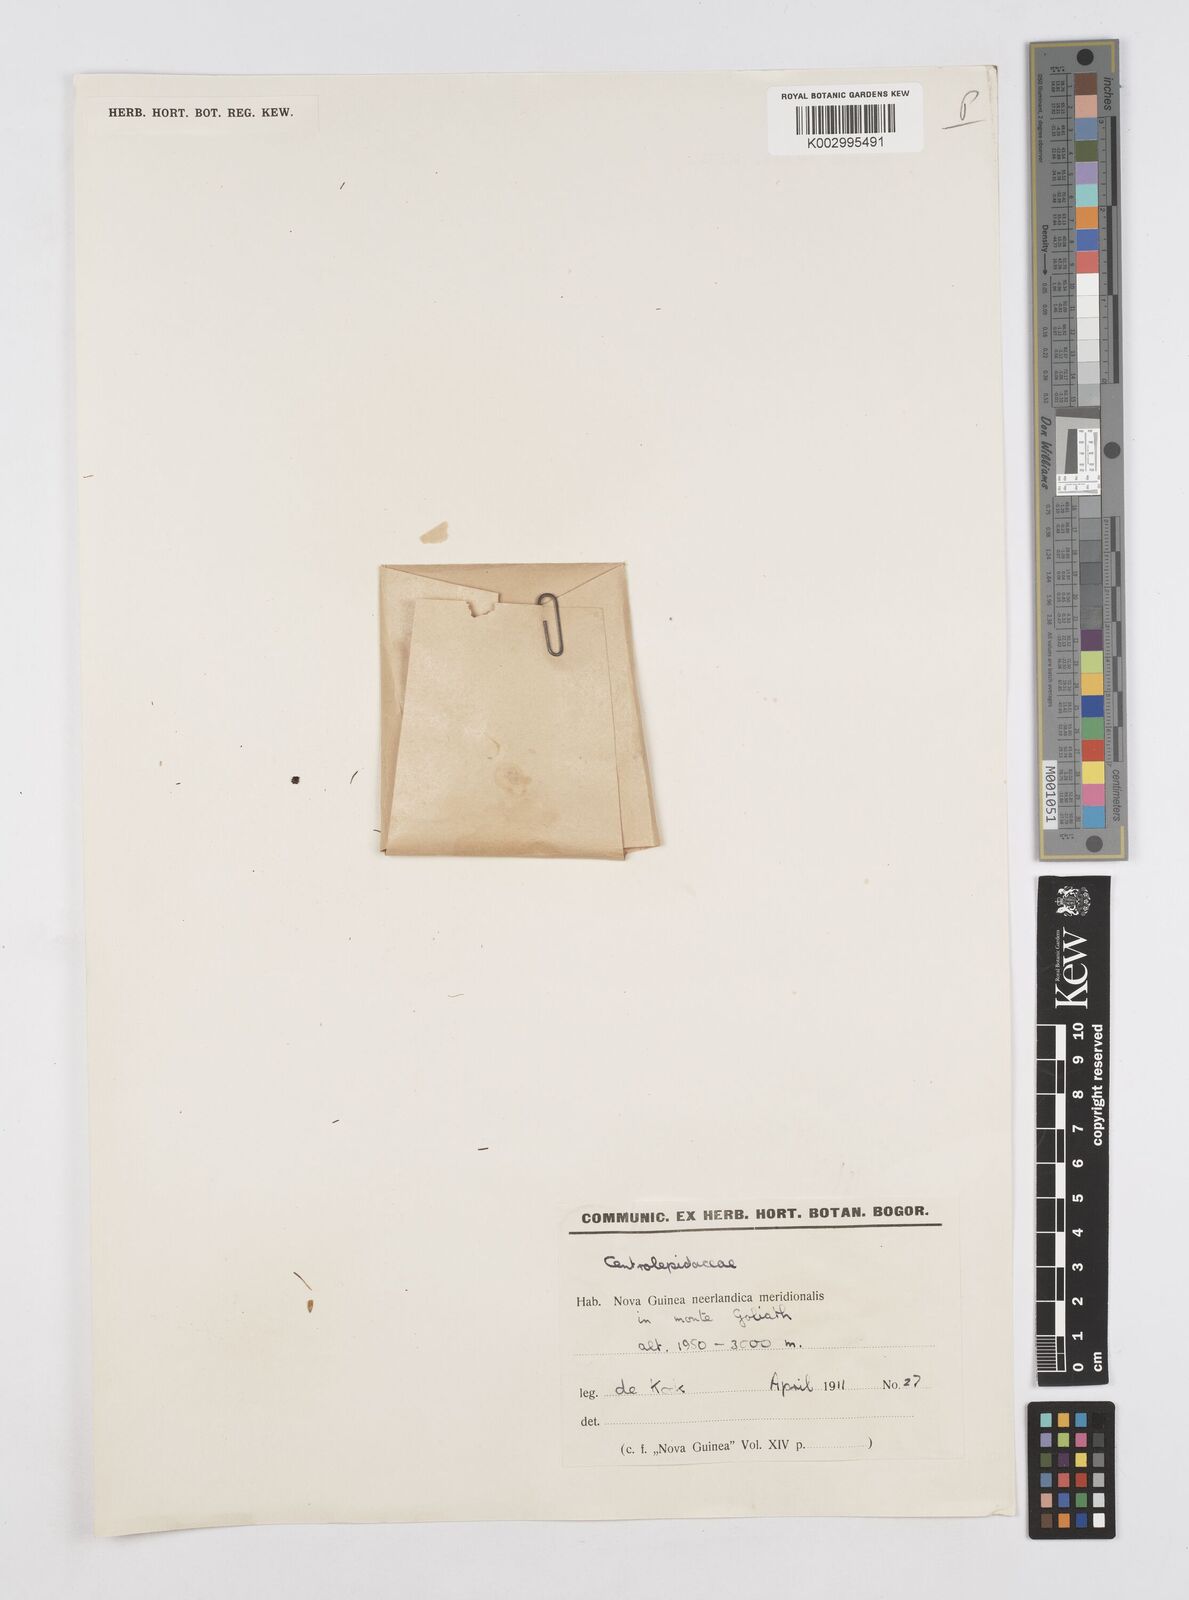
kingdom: Plantae
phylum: Tracheophyta
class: Liliopsida
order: Poales
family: Restionaceae
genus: Centrolepis
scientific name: Centrolepis
